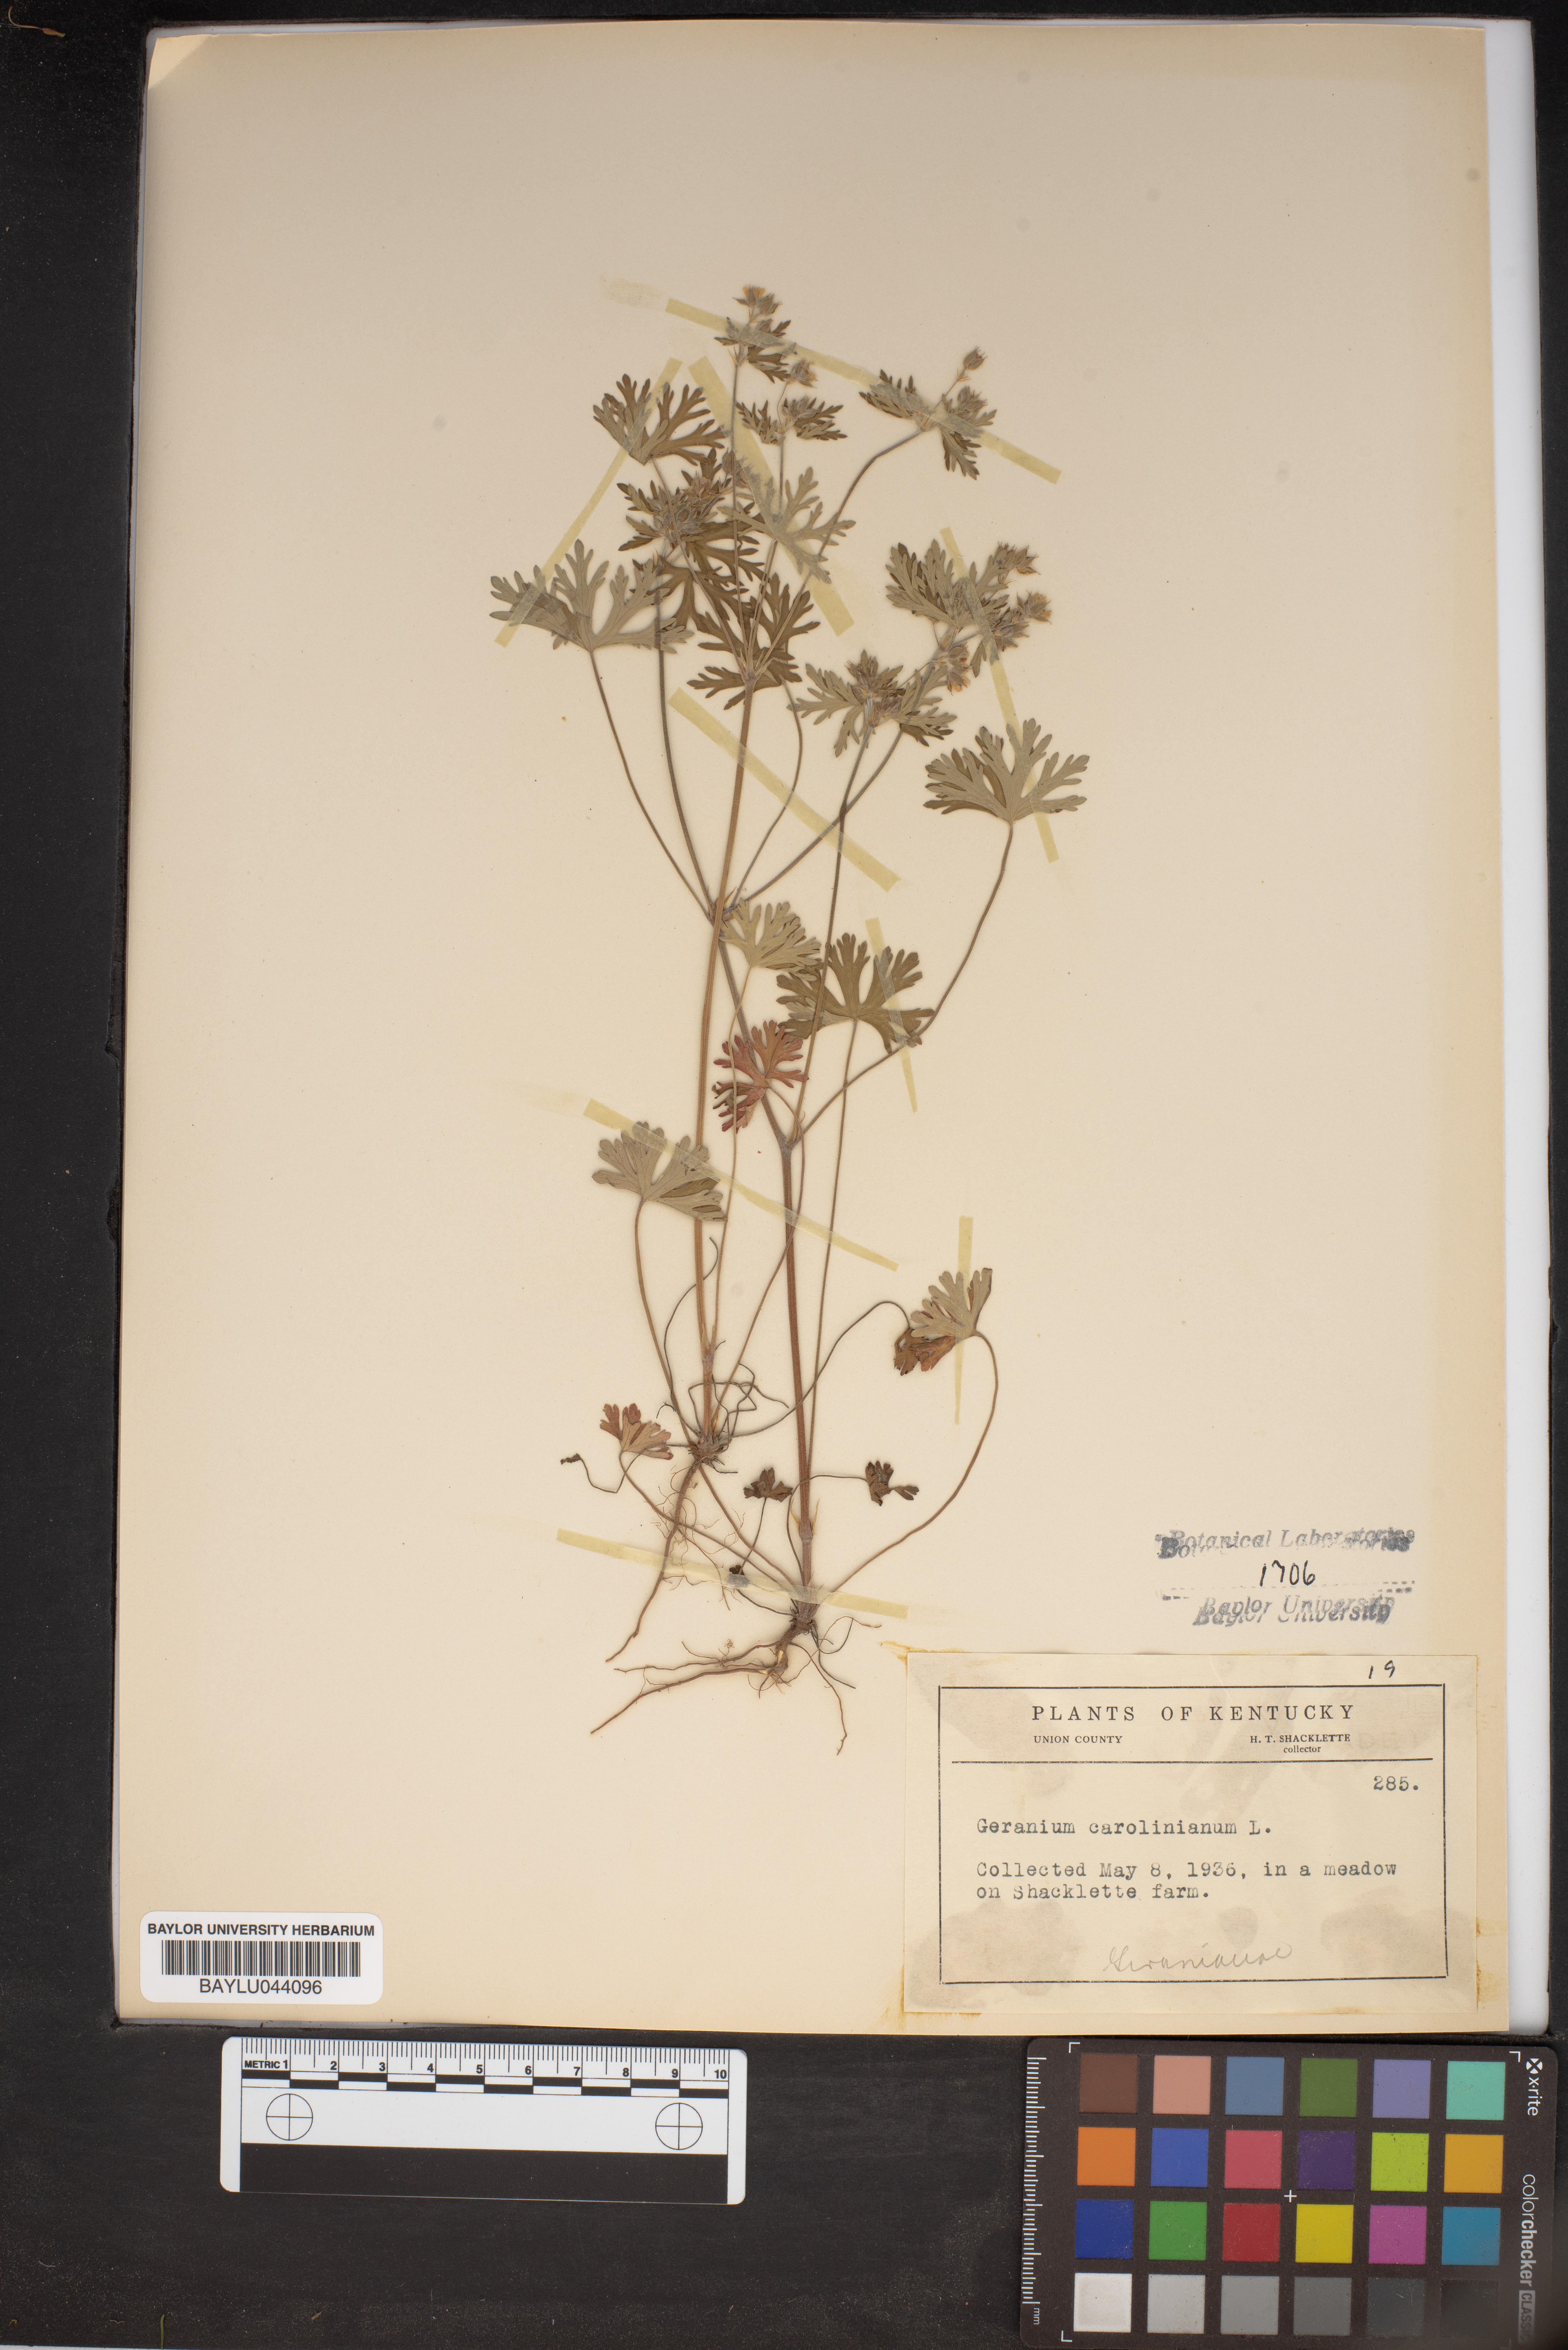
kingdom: Plantae
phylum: Tracheophyta
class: Magnoliopsida
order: Geraniales
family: Geraniaceae
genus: Geranium
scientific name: Geranium carolinianum
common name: Carolina crane's-bill
